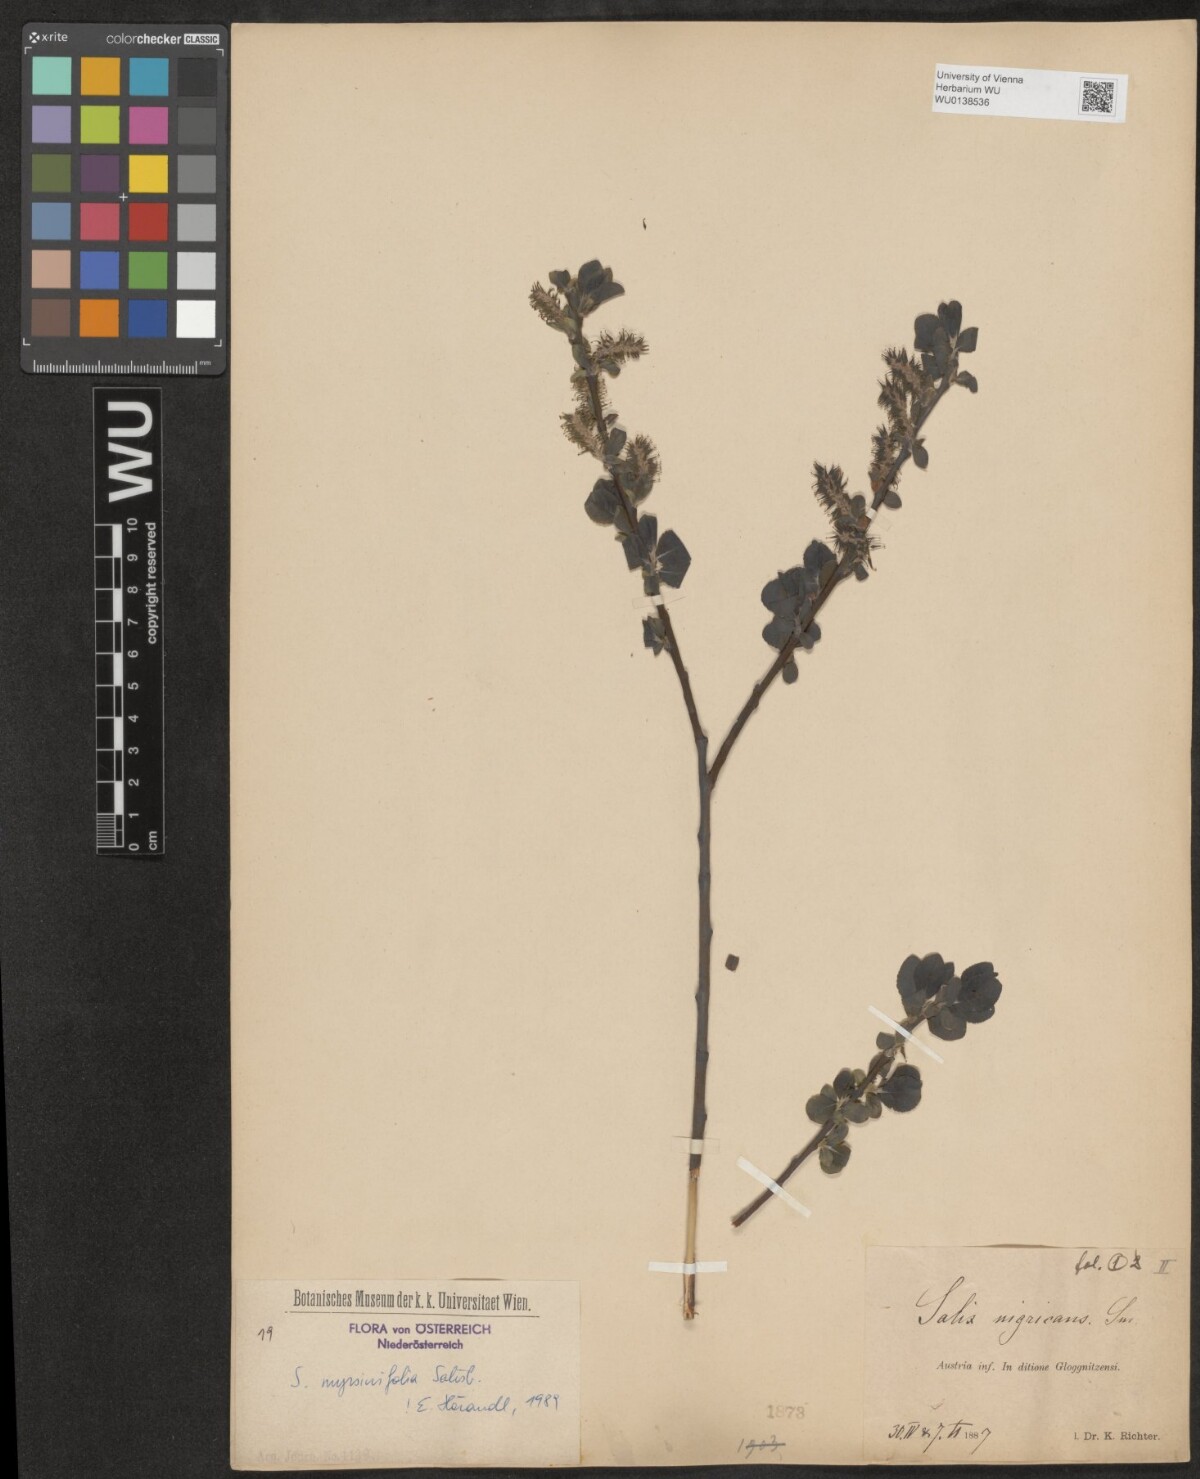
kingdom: Plantae
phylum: Tracheophyta
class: Magnoliopsida
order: Malpighiales
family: Salicaceae
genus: Salix
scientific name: Salix myrsinifolia
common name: Dark-leaved willow
